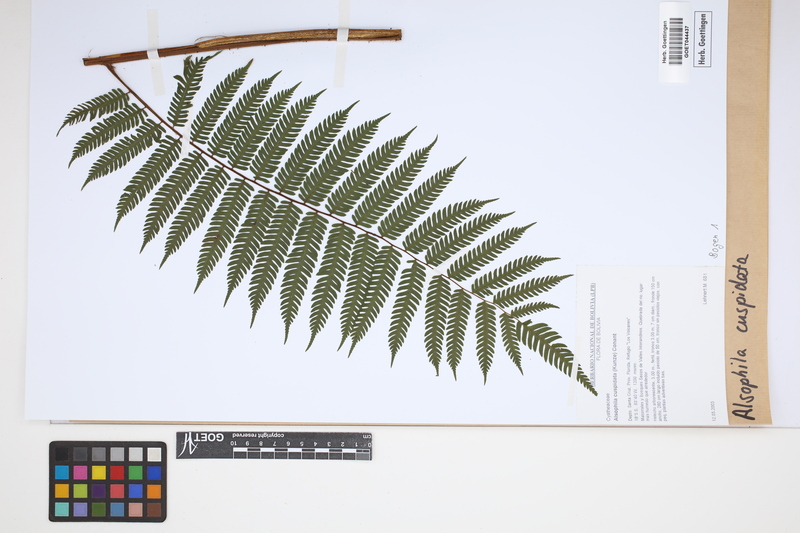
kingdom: Plantae
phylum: Tracheophyta
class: Polypodiopsida
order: Cyatheales
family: Cyatheaceae
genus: Alsophila
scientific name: Alsophila cuspidata
